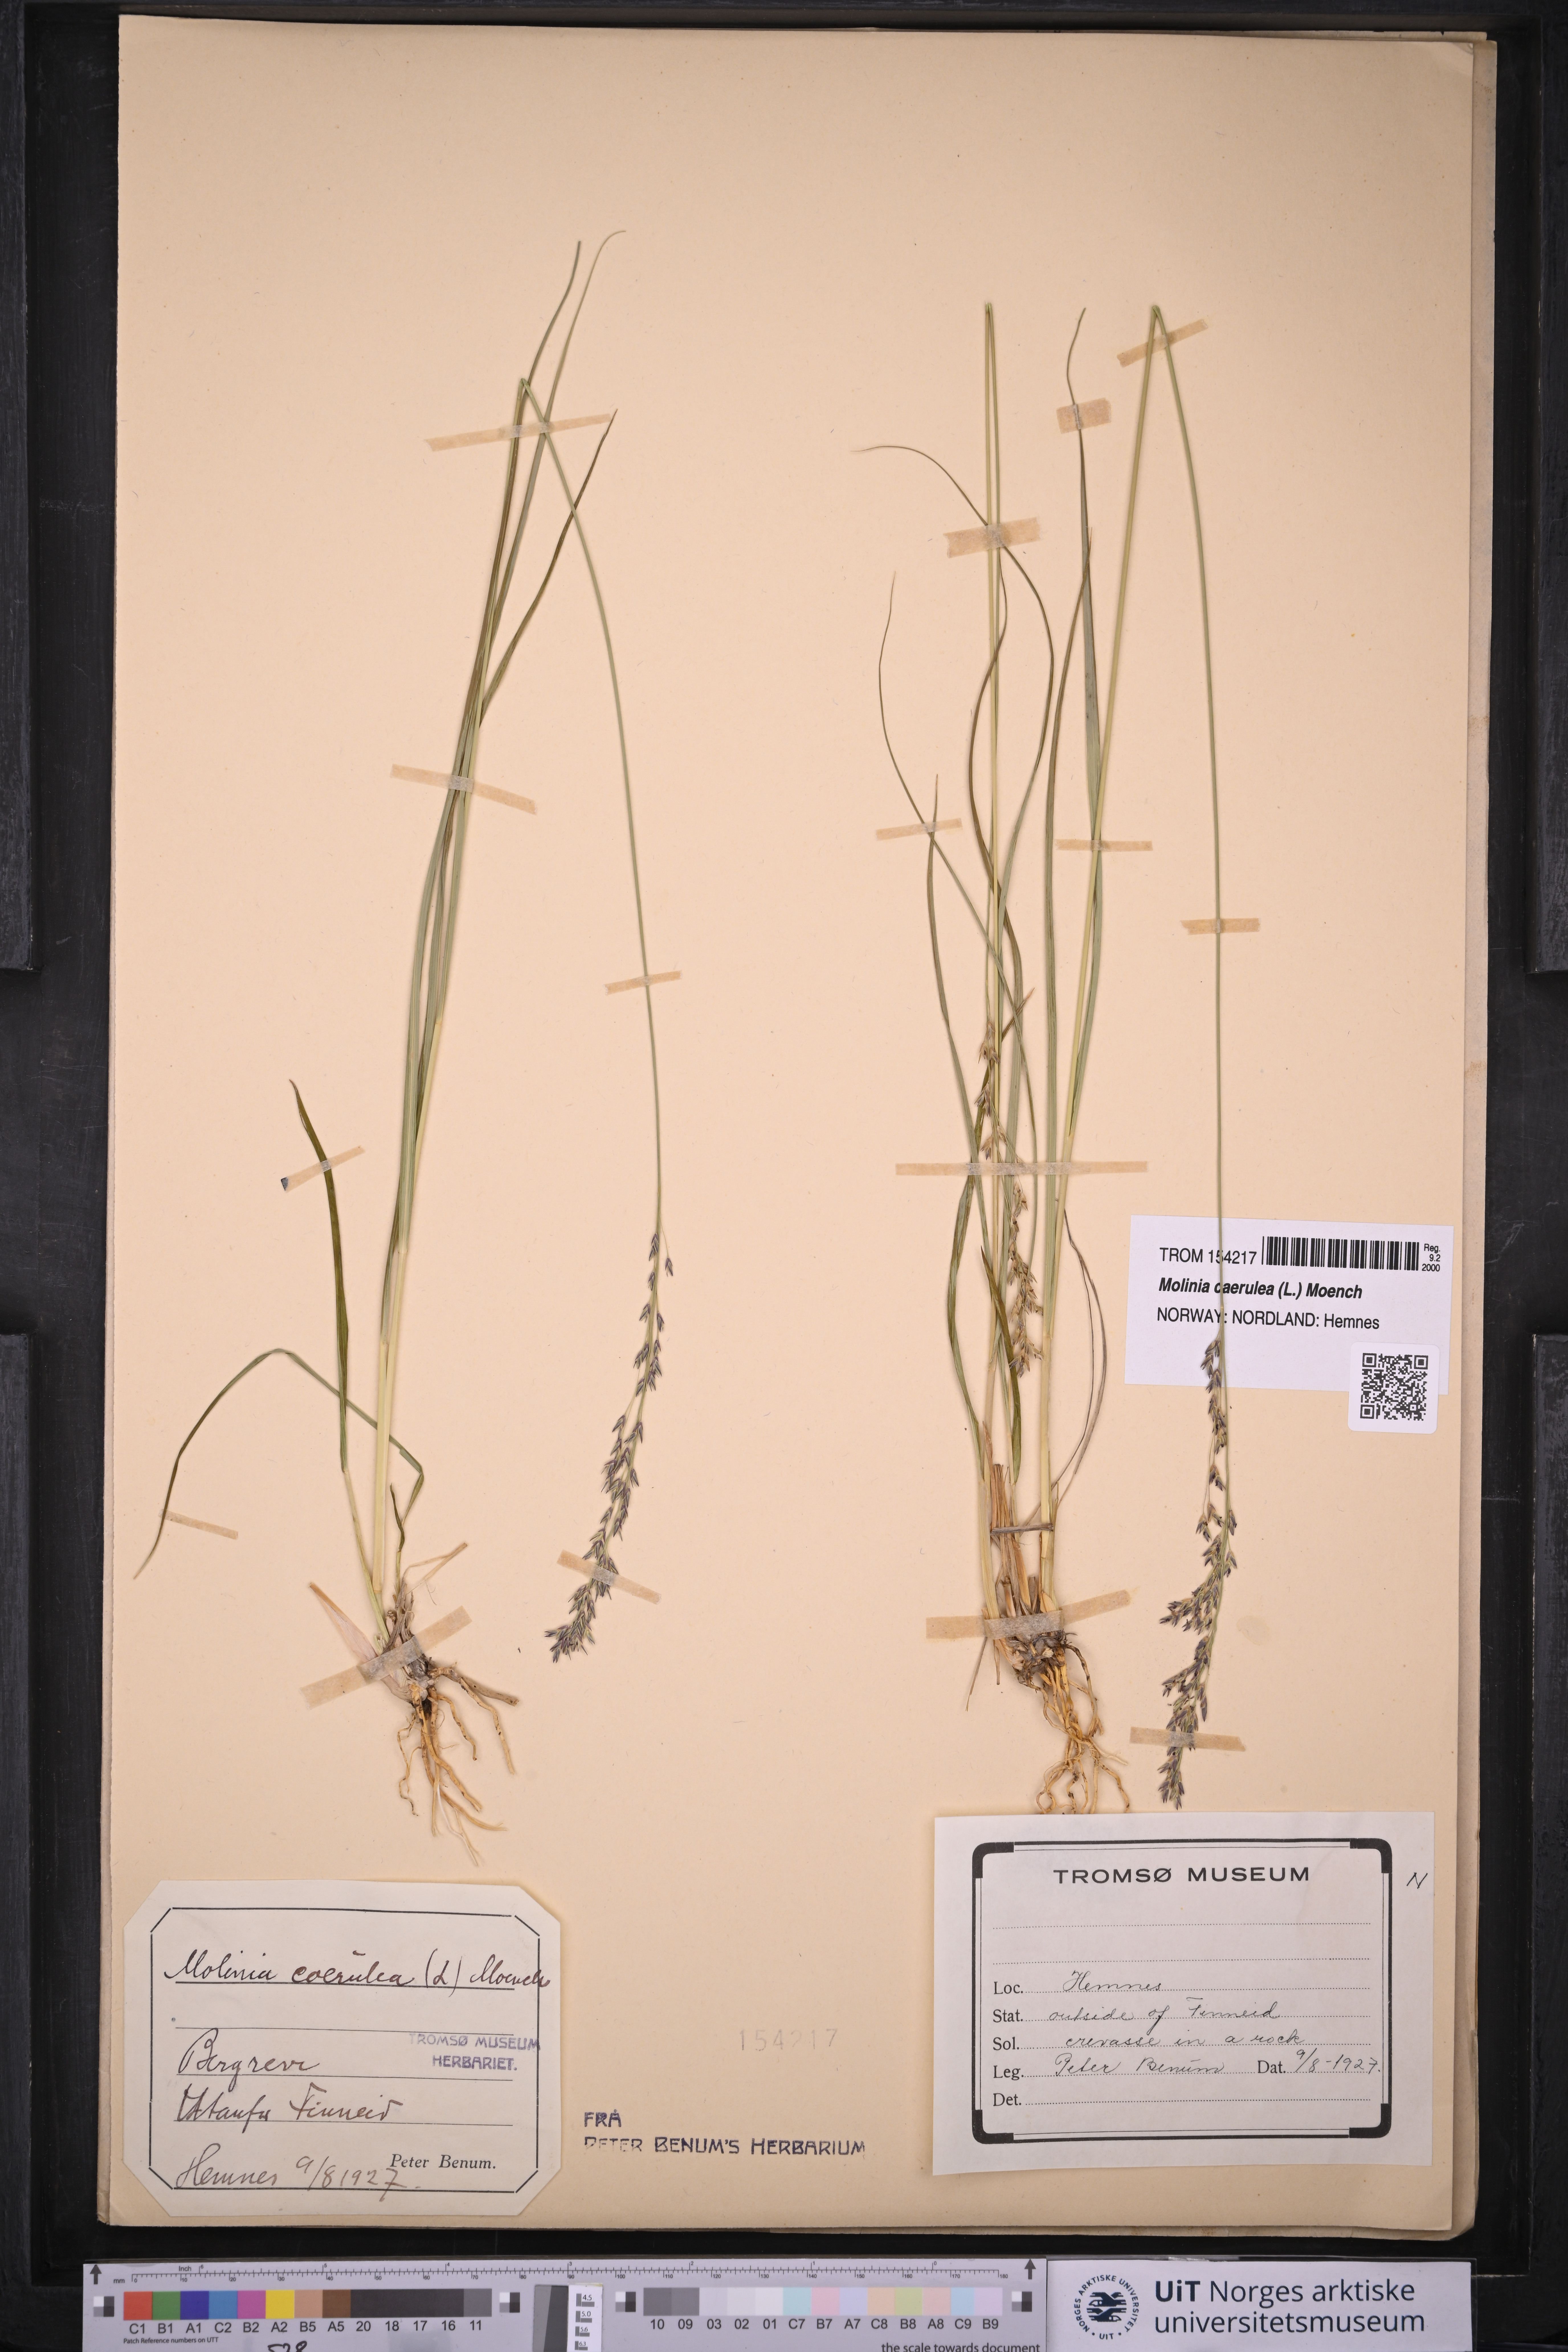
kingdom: Plantae
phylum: Tracheophyta
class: Liliopsida
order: Poales
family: Poaceae
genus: Molinia
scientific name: Molinia caerulea
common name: Purple moor-grass
